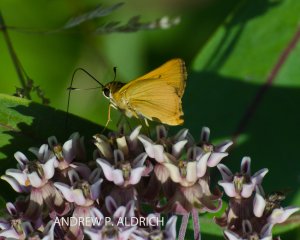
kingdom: Animalia
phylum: Arthropoda
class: Insecta
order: Lepidoptera
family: Hesperiidae
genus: Thymelicus
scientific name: Thymelicus lineola
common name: European Skipper
